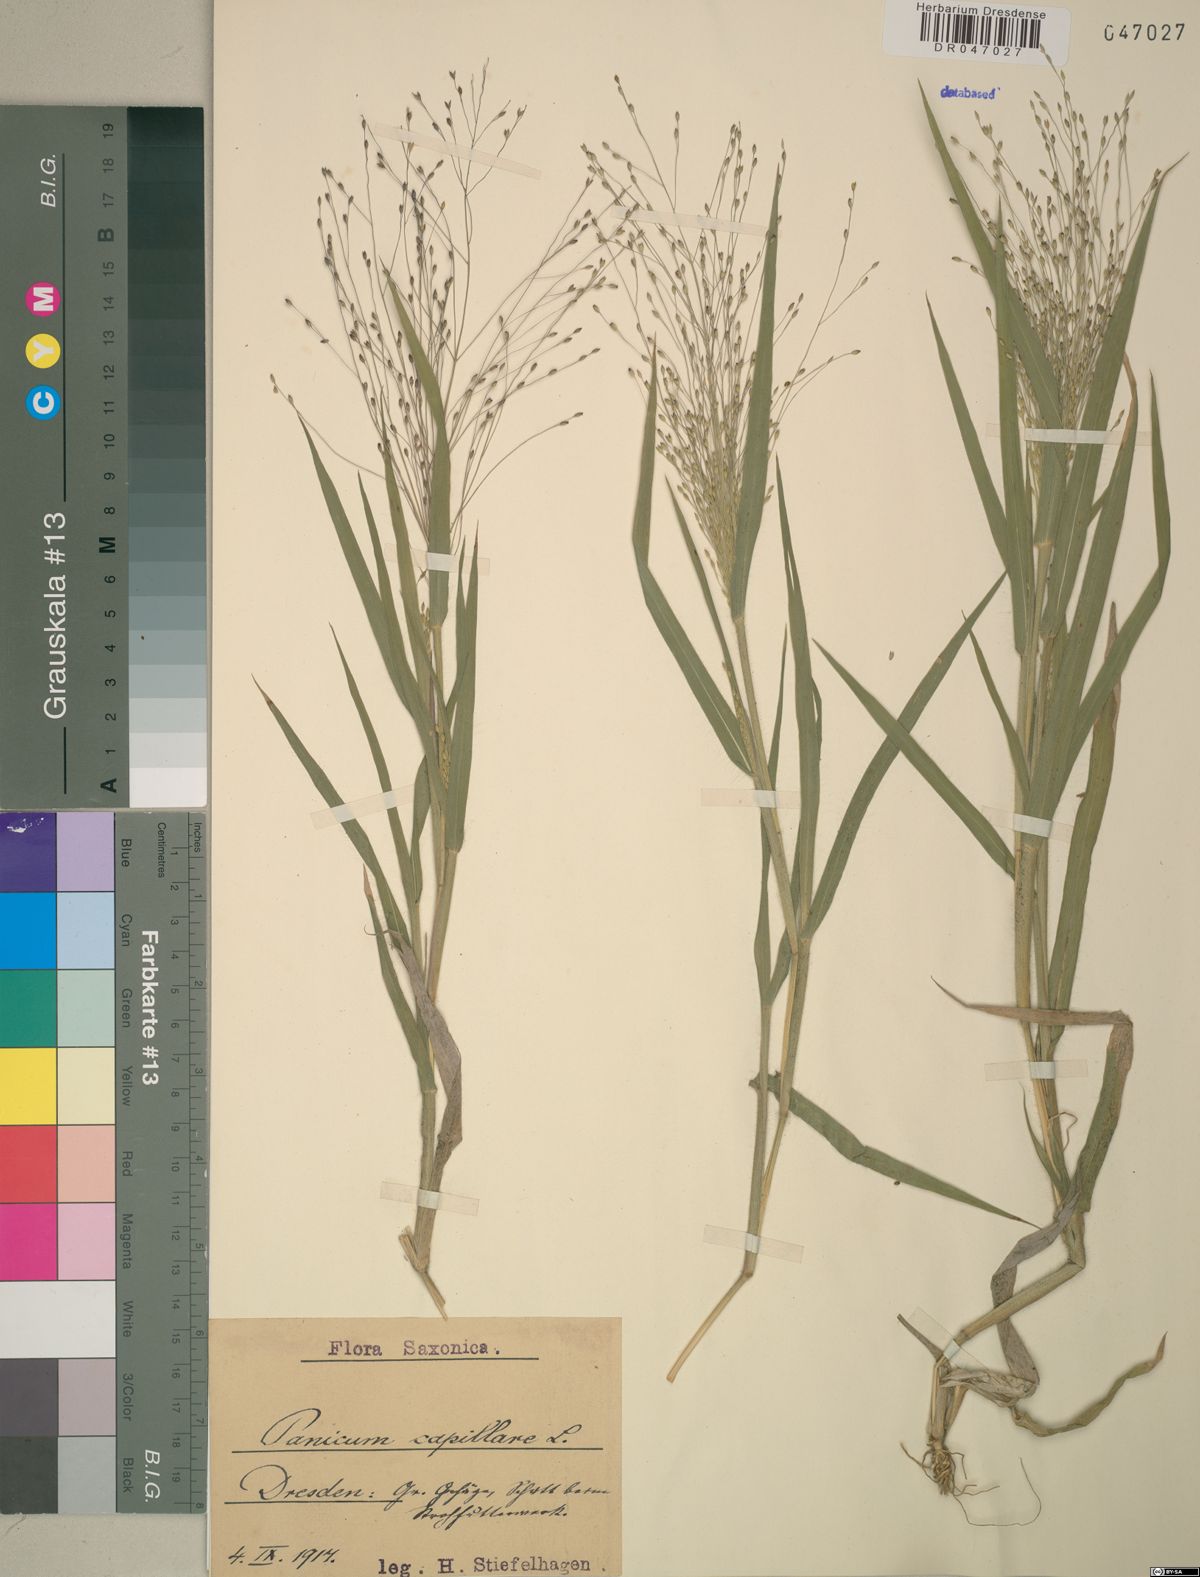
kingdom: Plantae
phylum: Tracheophyta
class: Liliopsida
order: Poales
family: Poaceae
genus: Panicum
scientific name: Panicum capillare
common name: Witch-grass
